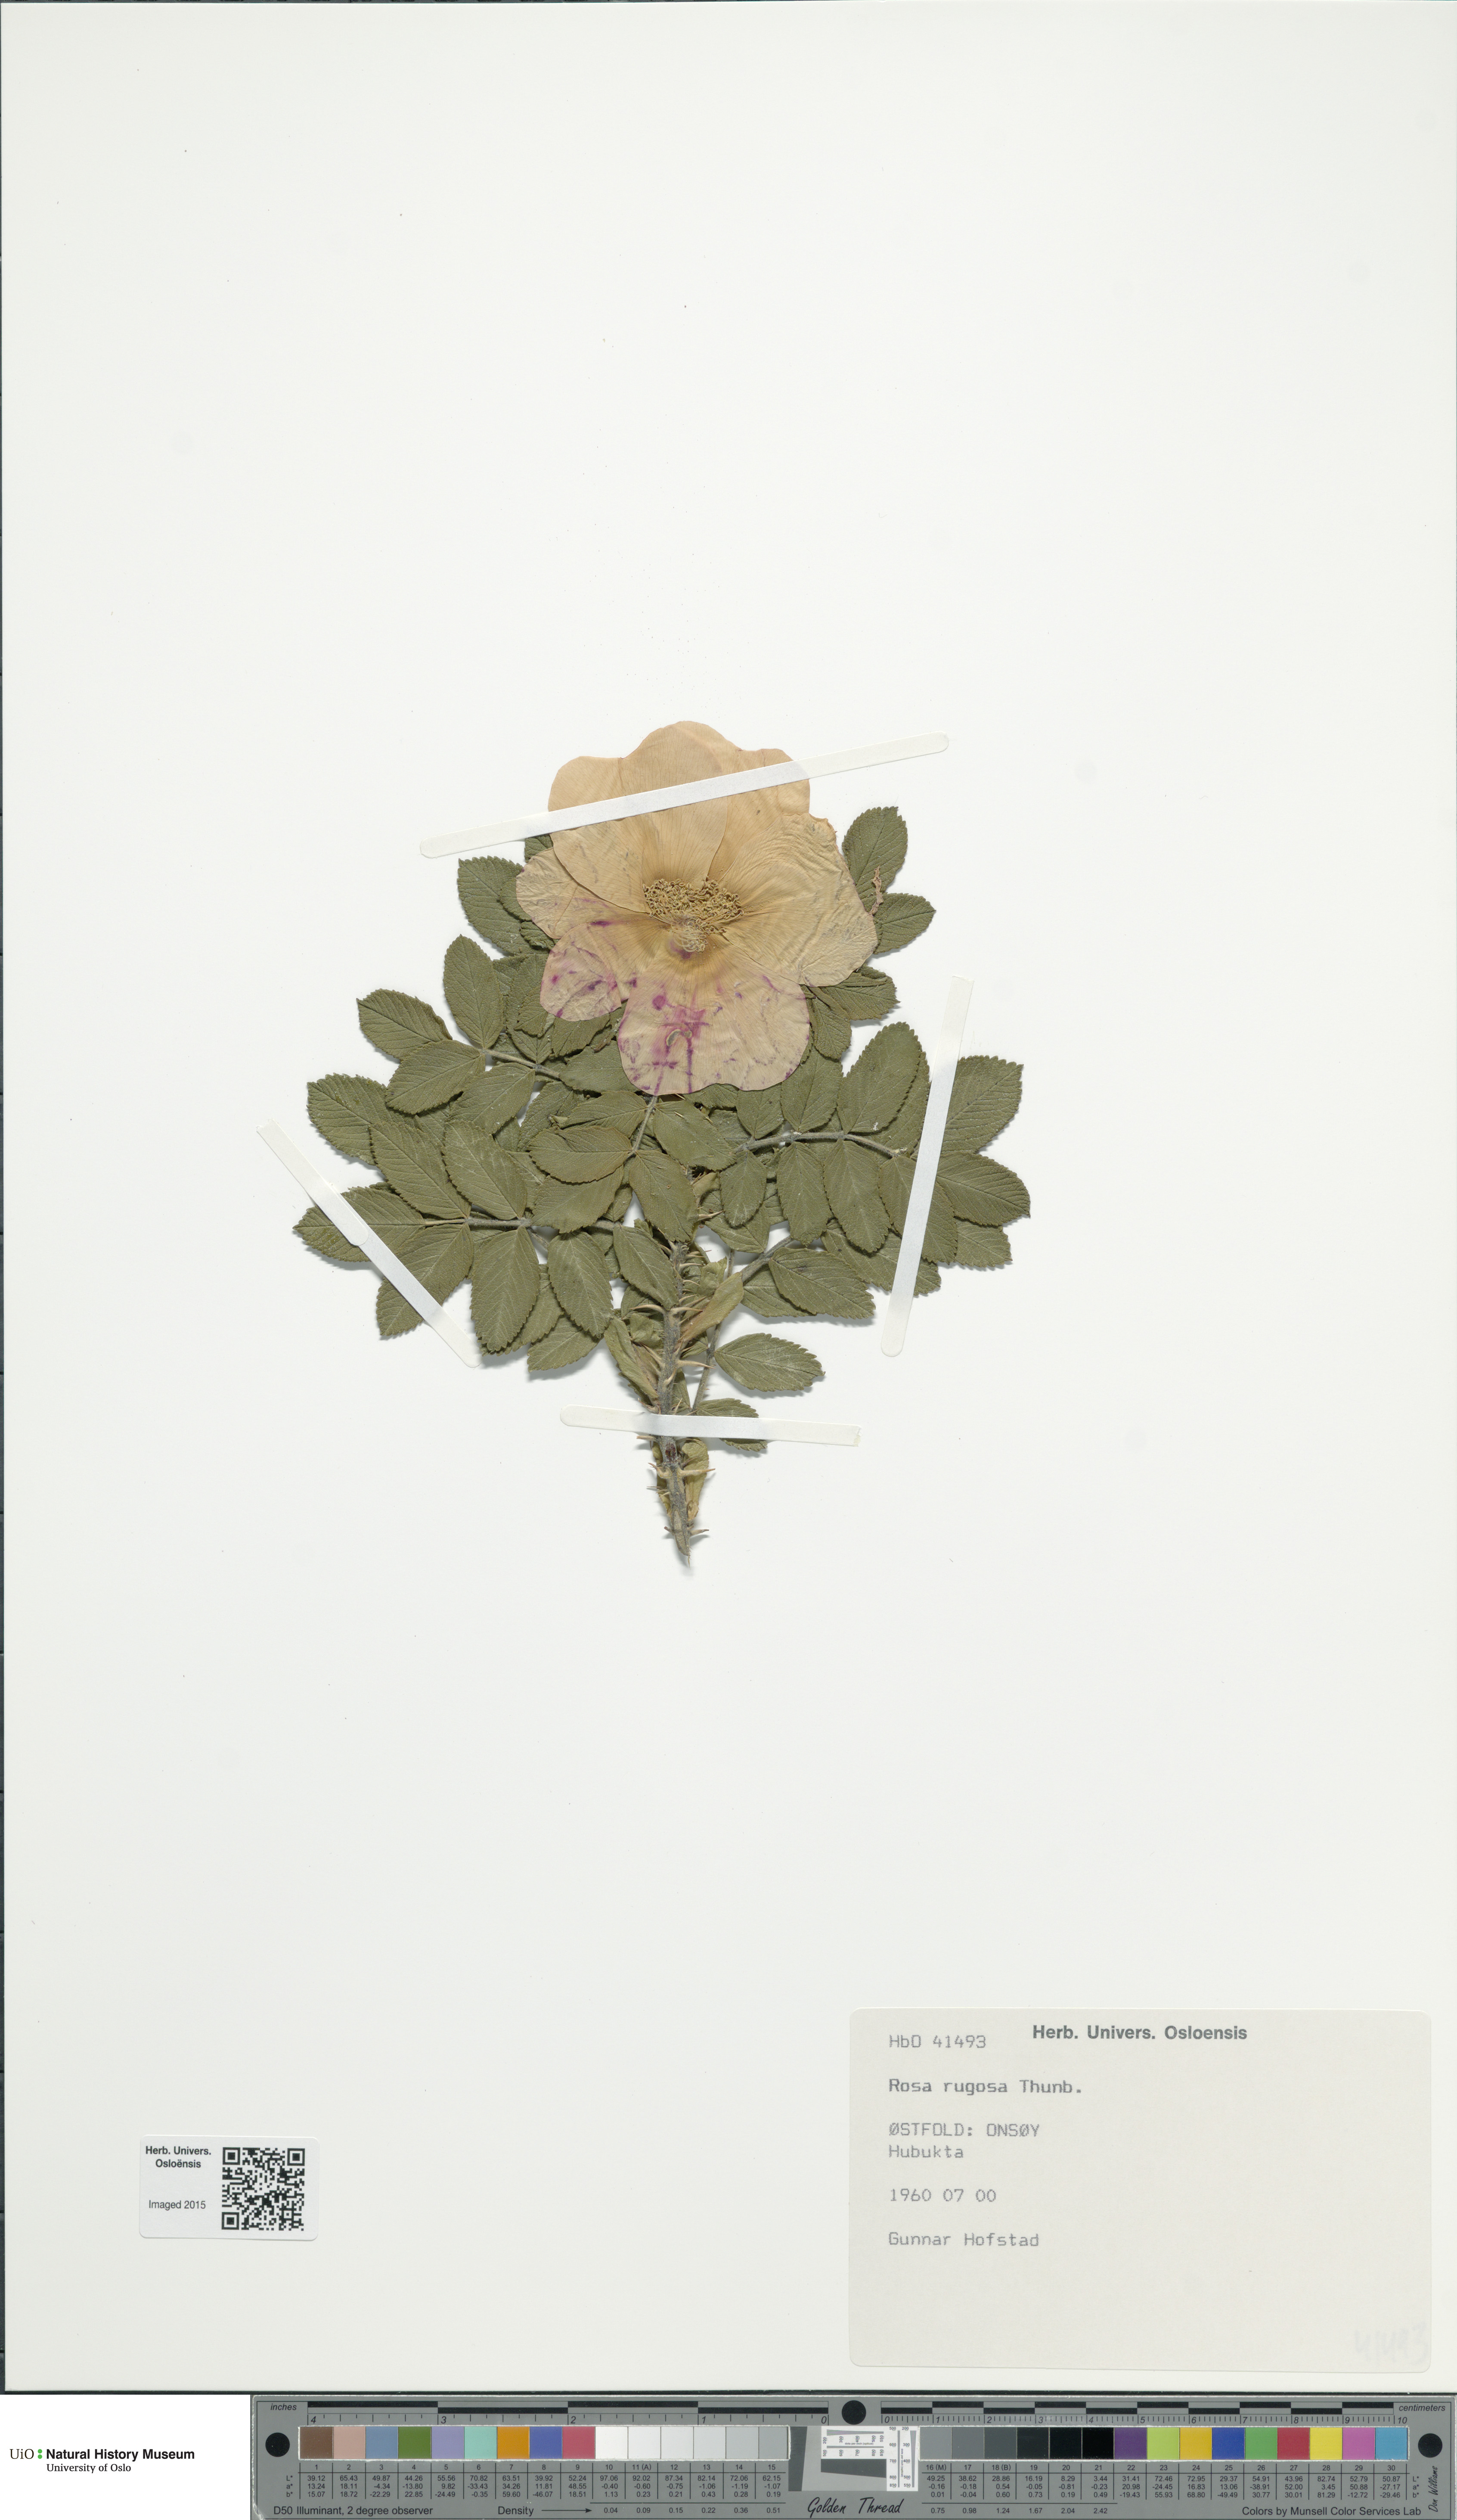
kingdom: Plantae
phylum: Tracheophyta
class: Magnoliopsida
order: Rosales
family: Rosaceae
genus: Rosa
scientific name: Rosa rugosa
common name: Japanese rose
